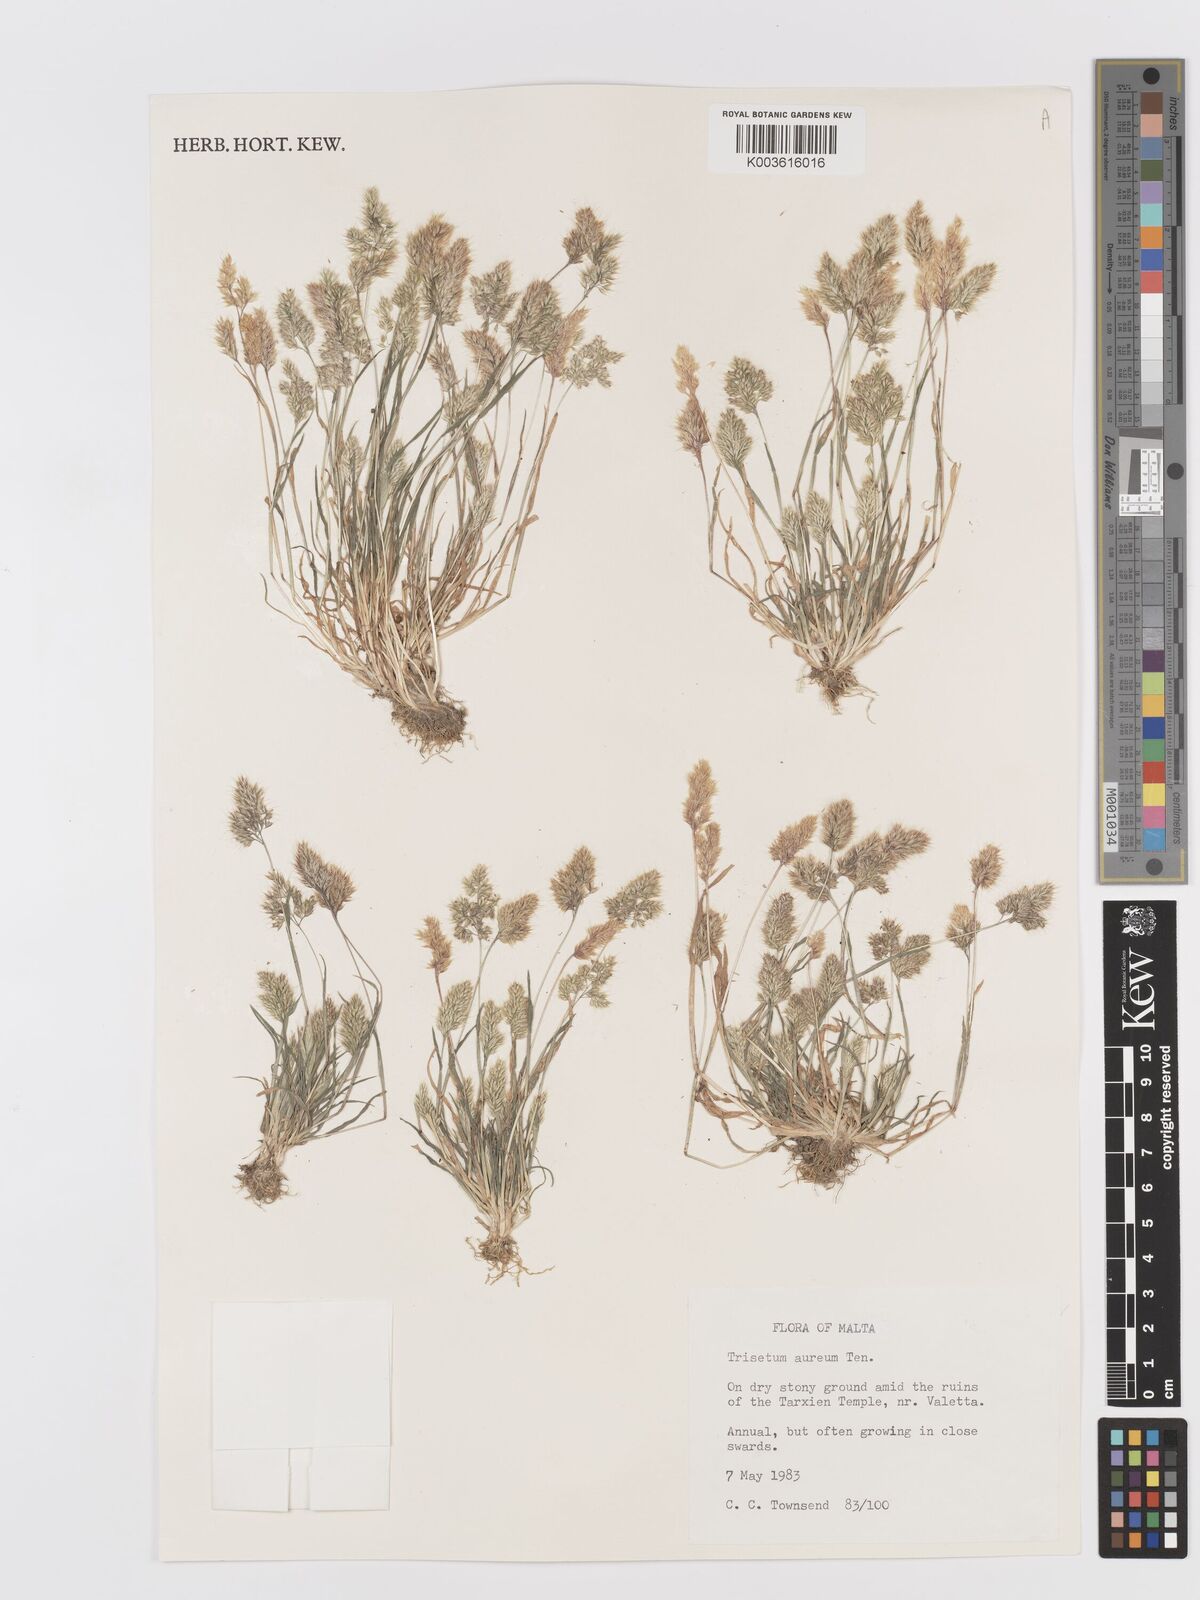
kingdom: Plantae
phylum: Tracheophyta
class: Liliopsida
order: Poales
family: Poaceae
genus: Trisetaria
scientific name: Trisetaria aurea
